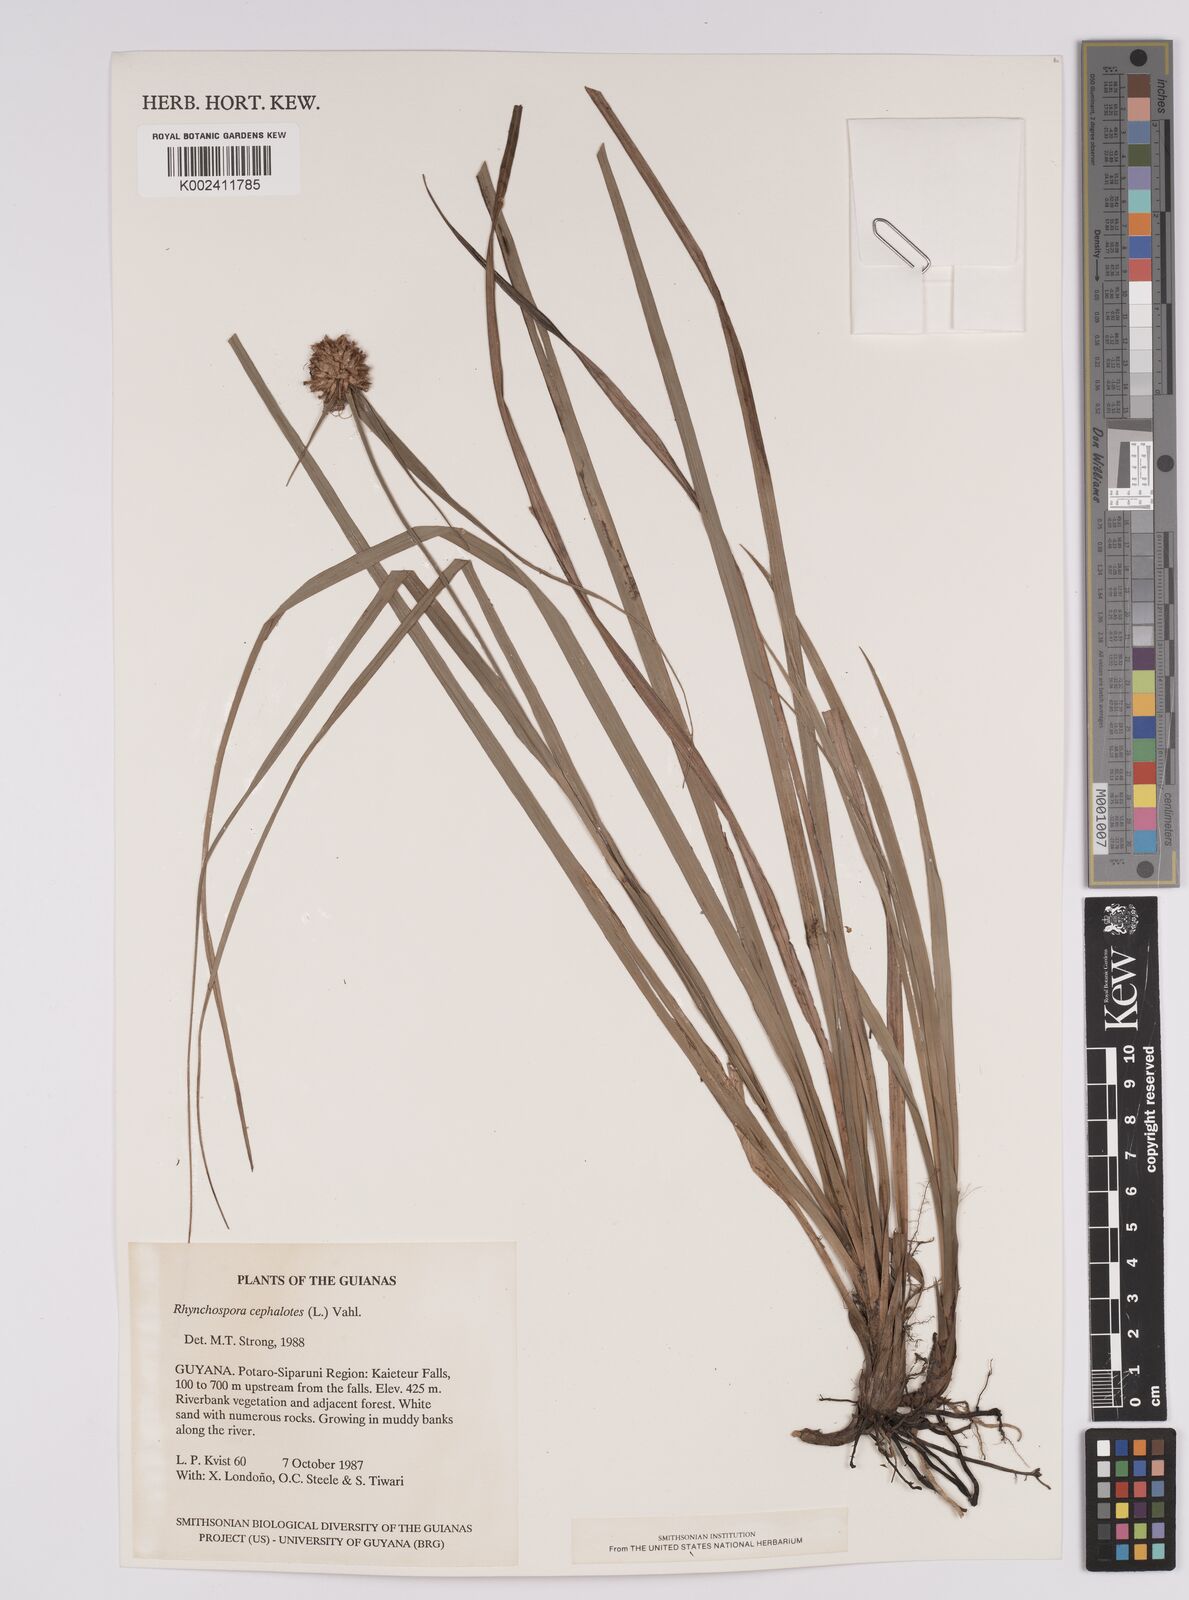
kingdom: Plantae
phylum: Tracheophyta
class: Liliopsida
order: Poales
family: Cyperaceae
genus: Rhynchospora
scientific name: Rhynchospora cephalotes
